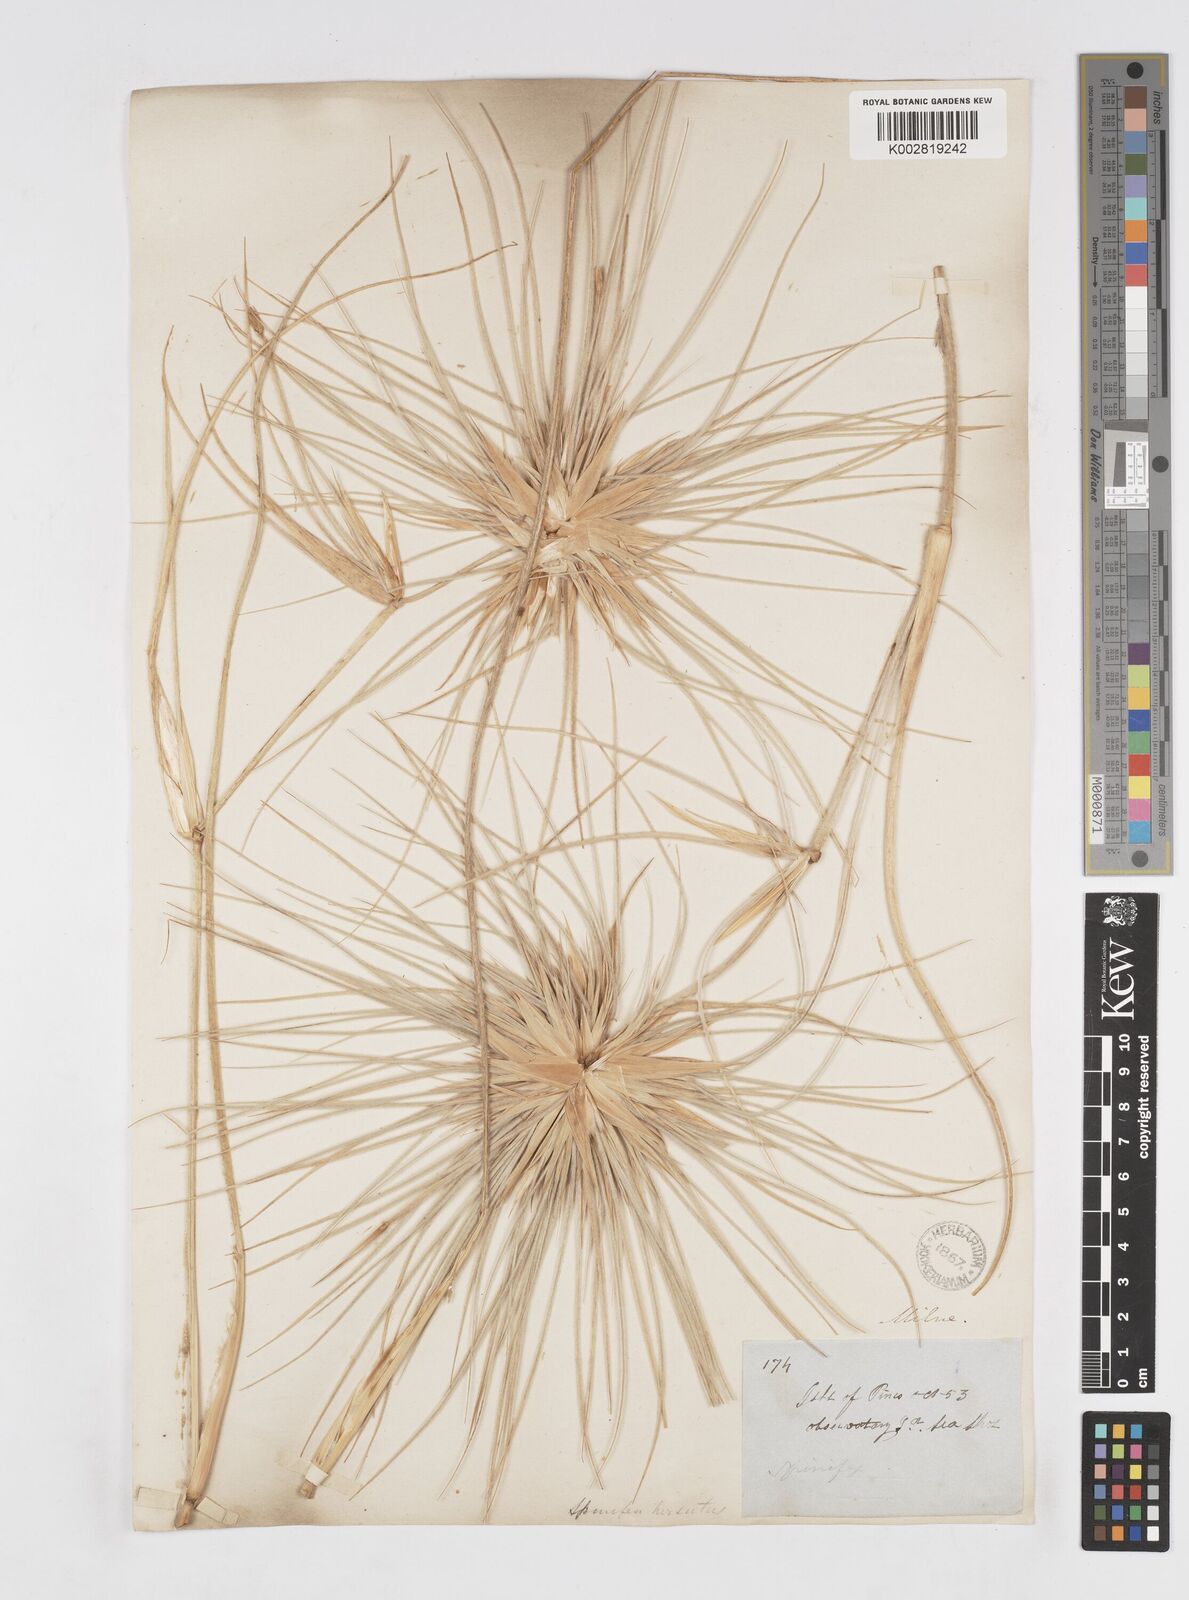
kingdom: Plantae
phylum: Tracheophyta
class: Liliopsida
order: Poales
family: Poaceae
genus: Spinifex
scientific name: Spinifex sericeus
